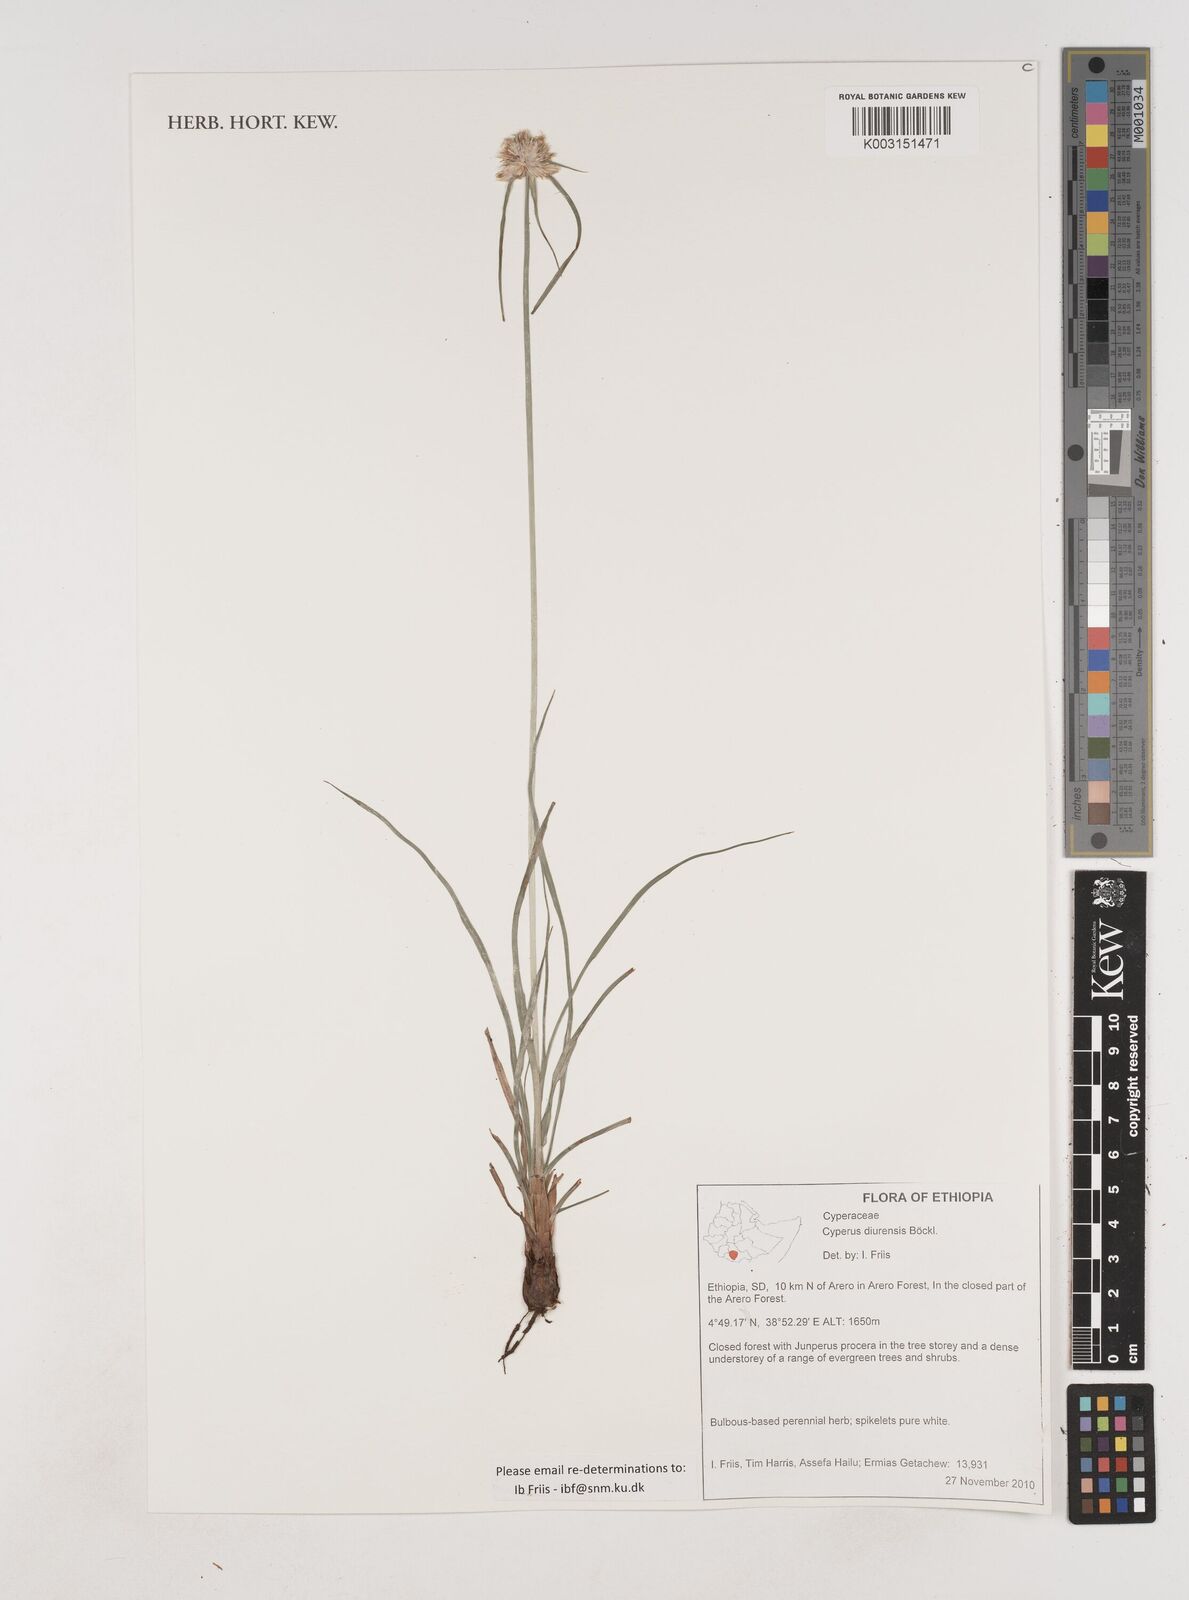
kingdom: Plantae
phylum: Tracheophyta
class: Liliopsida
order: Poales
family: Cyperaceae
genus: Cyperus
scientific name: Cyperus diurensis
